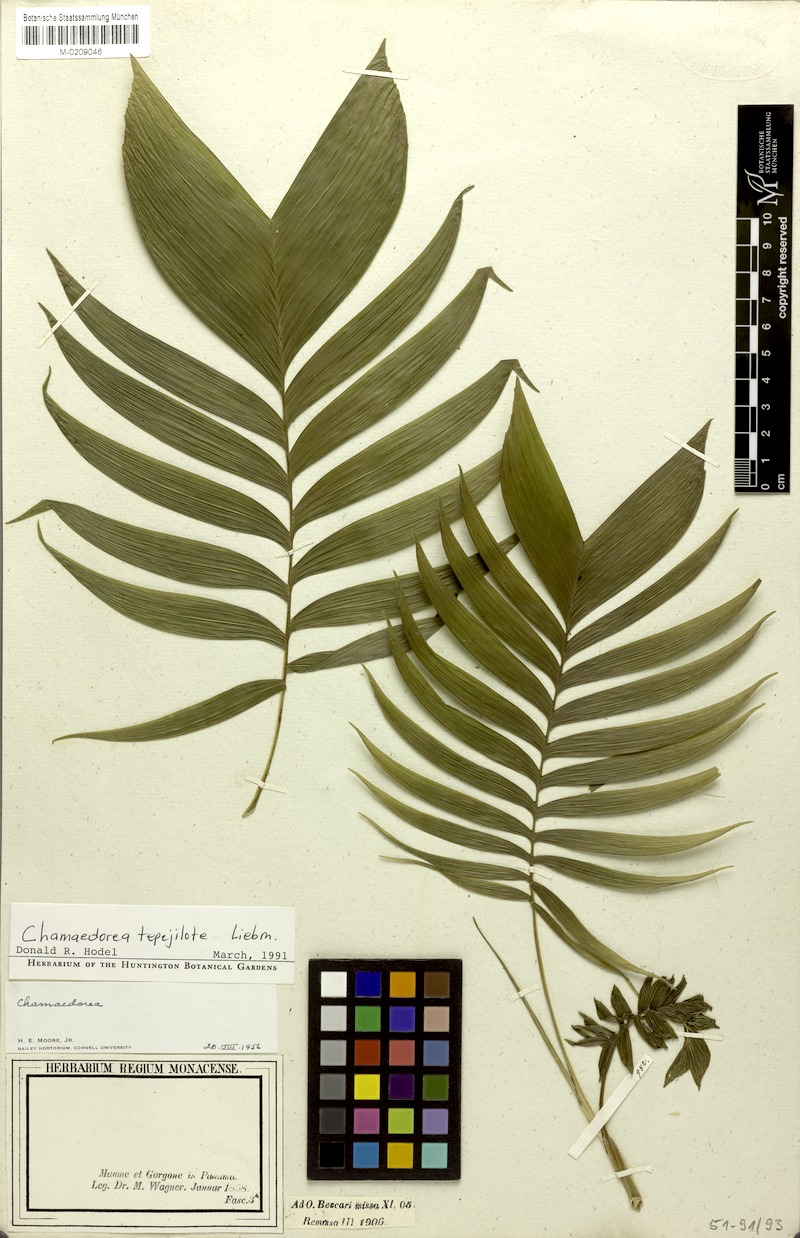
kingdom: Plantae
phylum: Tracheophyta
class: Liliopsida
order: Arecales
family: Arecaceae
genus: Chamaedorea
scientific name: Chamaedorea tepejilote
